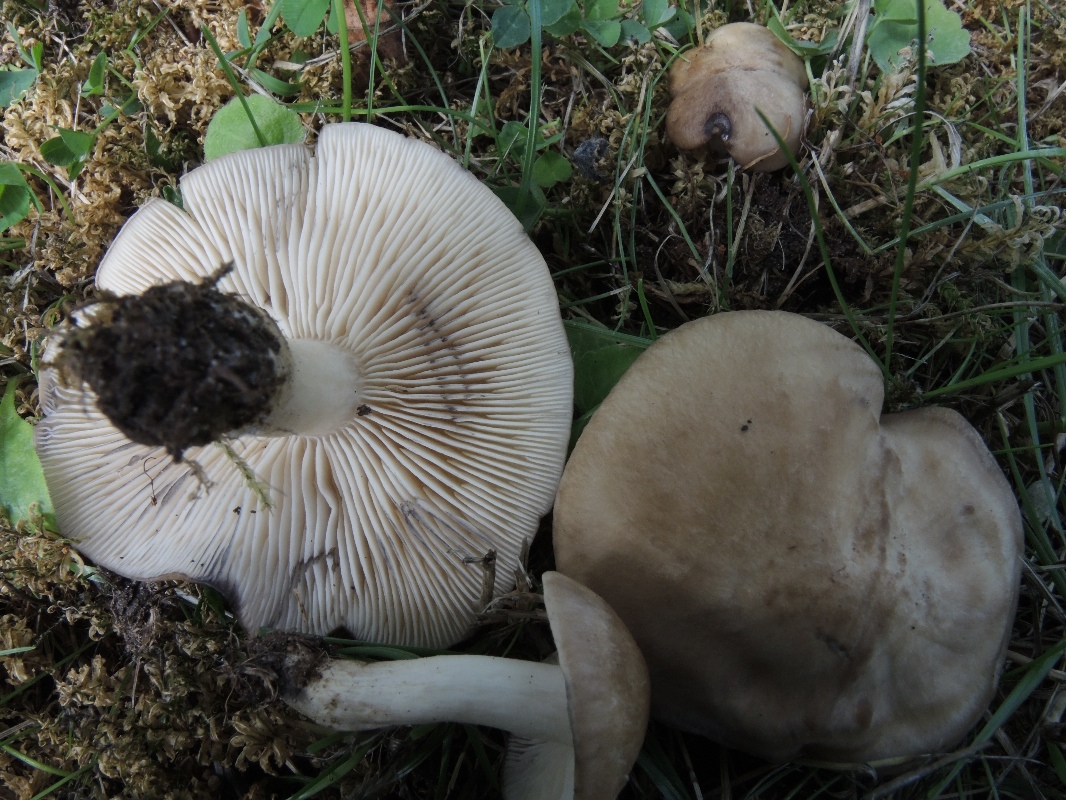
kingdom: Fungi
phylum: Basidiomycota
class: Agaricomycetes
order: Agaricales
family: Lyophyllaceae
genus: Lyophyllum
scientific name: Lyophyllum paelochroum
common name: blånende gråblad
